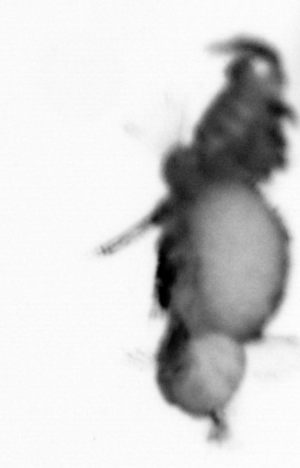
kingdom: Animalia
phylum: Annelida
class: Polychaeta
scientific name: Polychaeta
